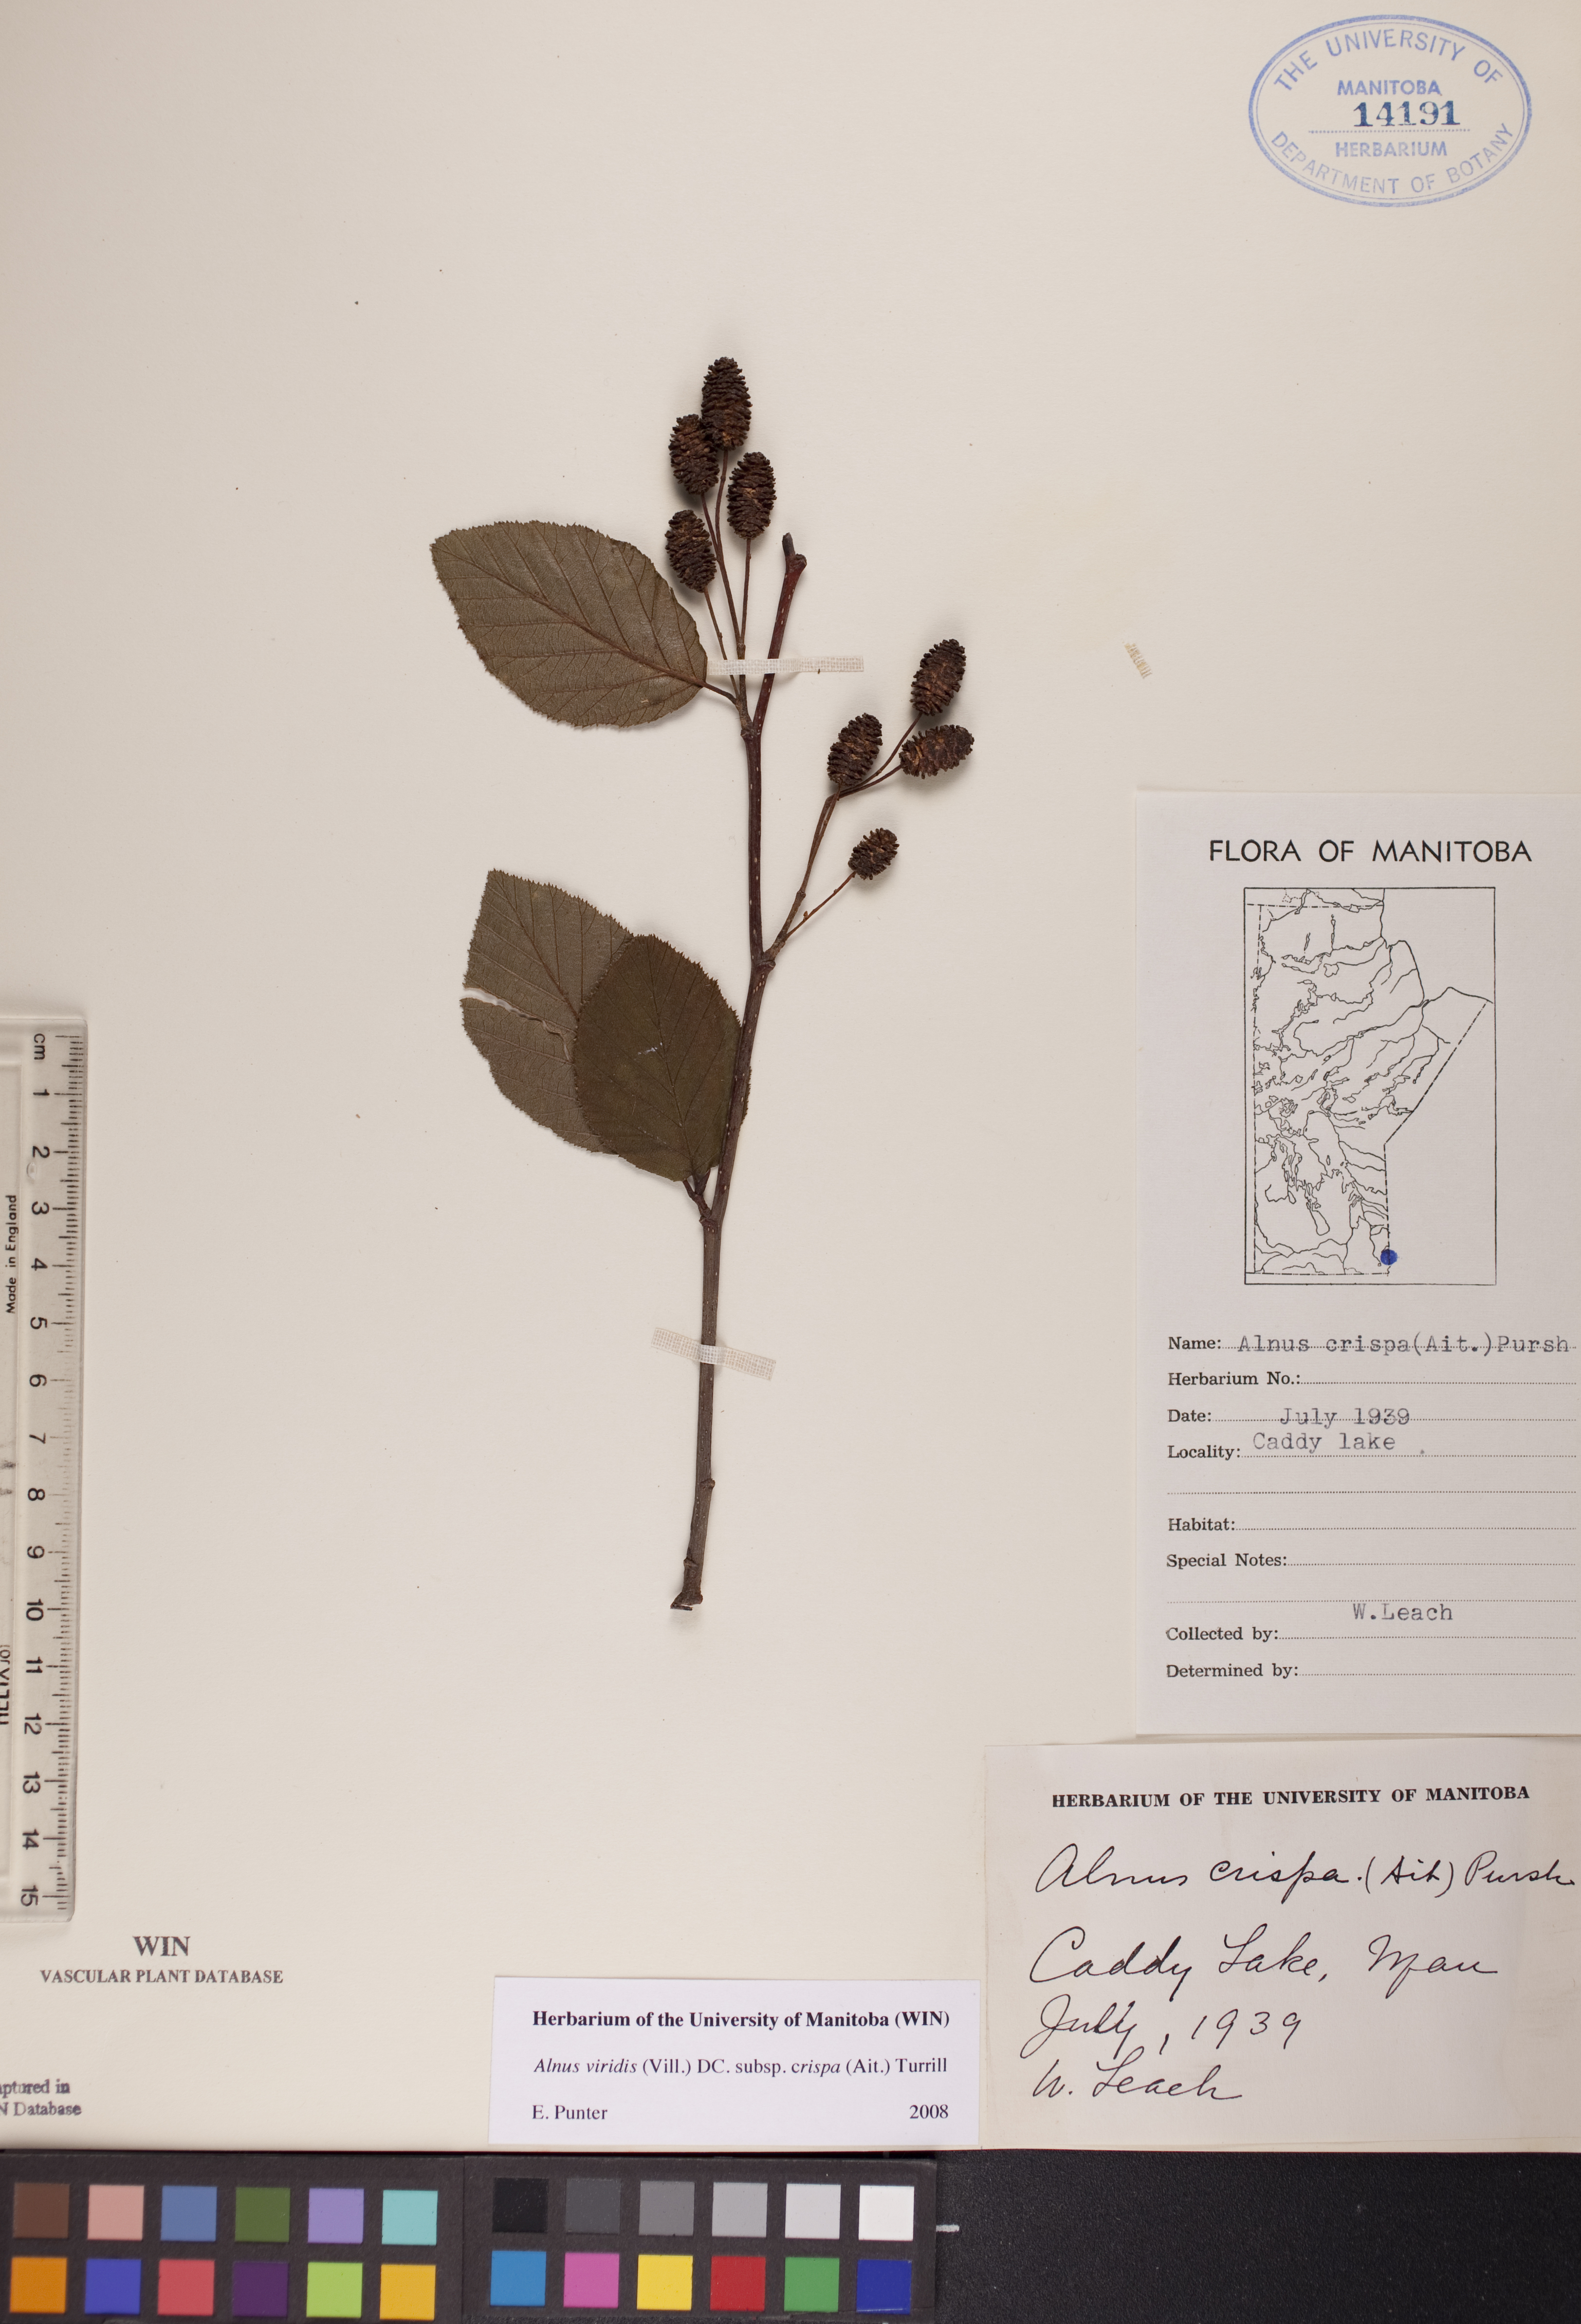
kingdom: Plantae
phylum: Tracheophyta
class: Magnoliopsida
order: Fagales
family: Betulaceae
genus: Alnus
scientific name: Alnus alnobetula
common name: Green alder
